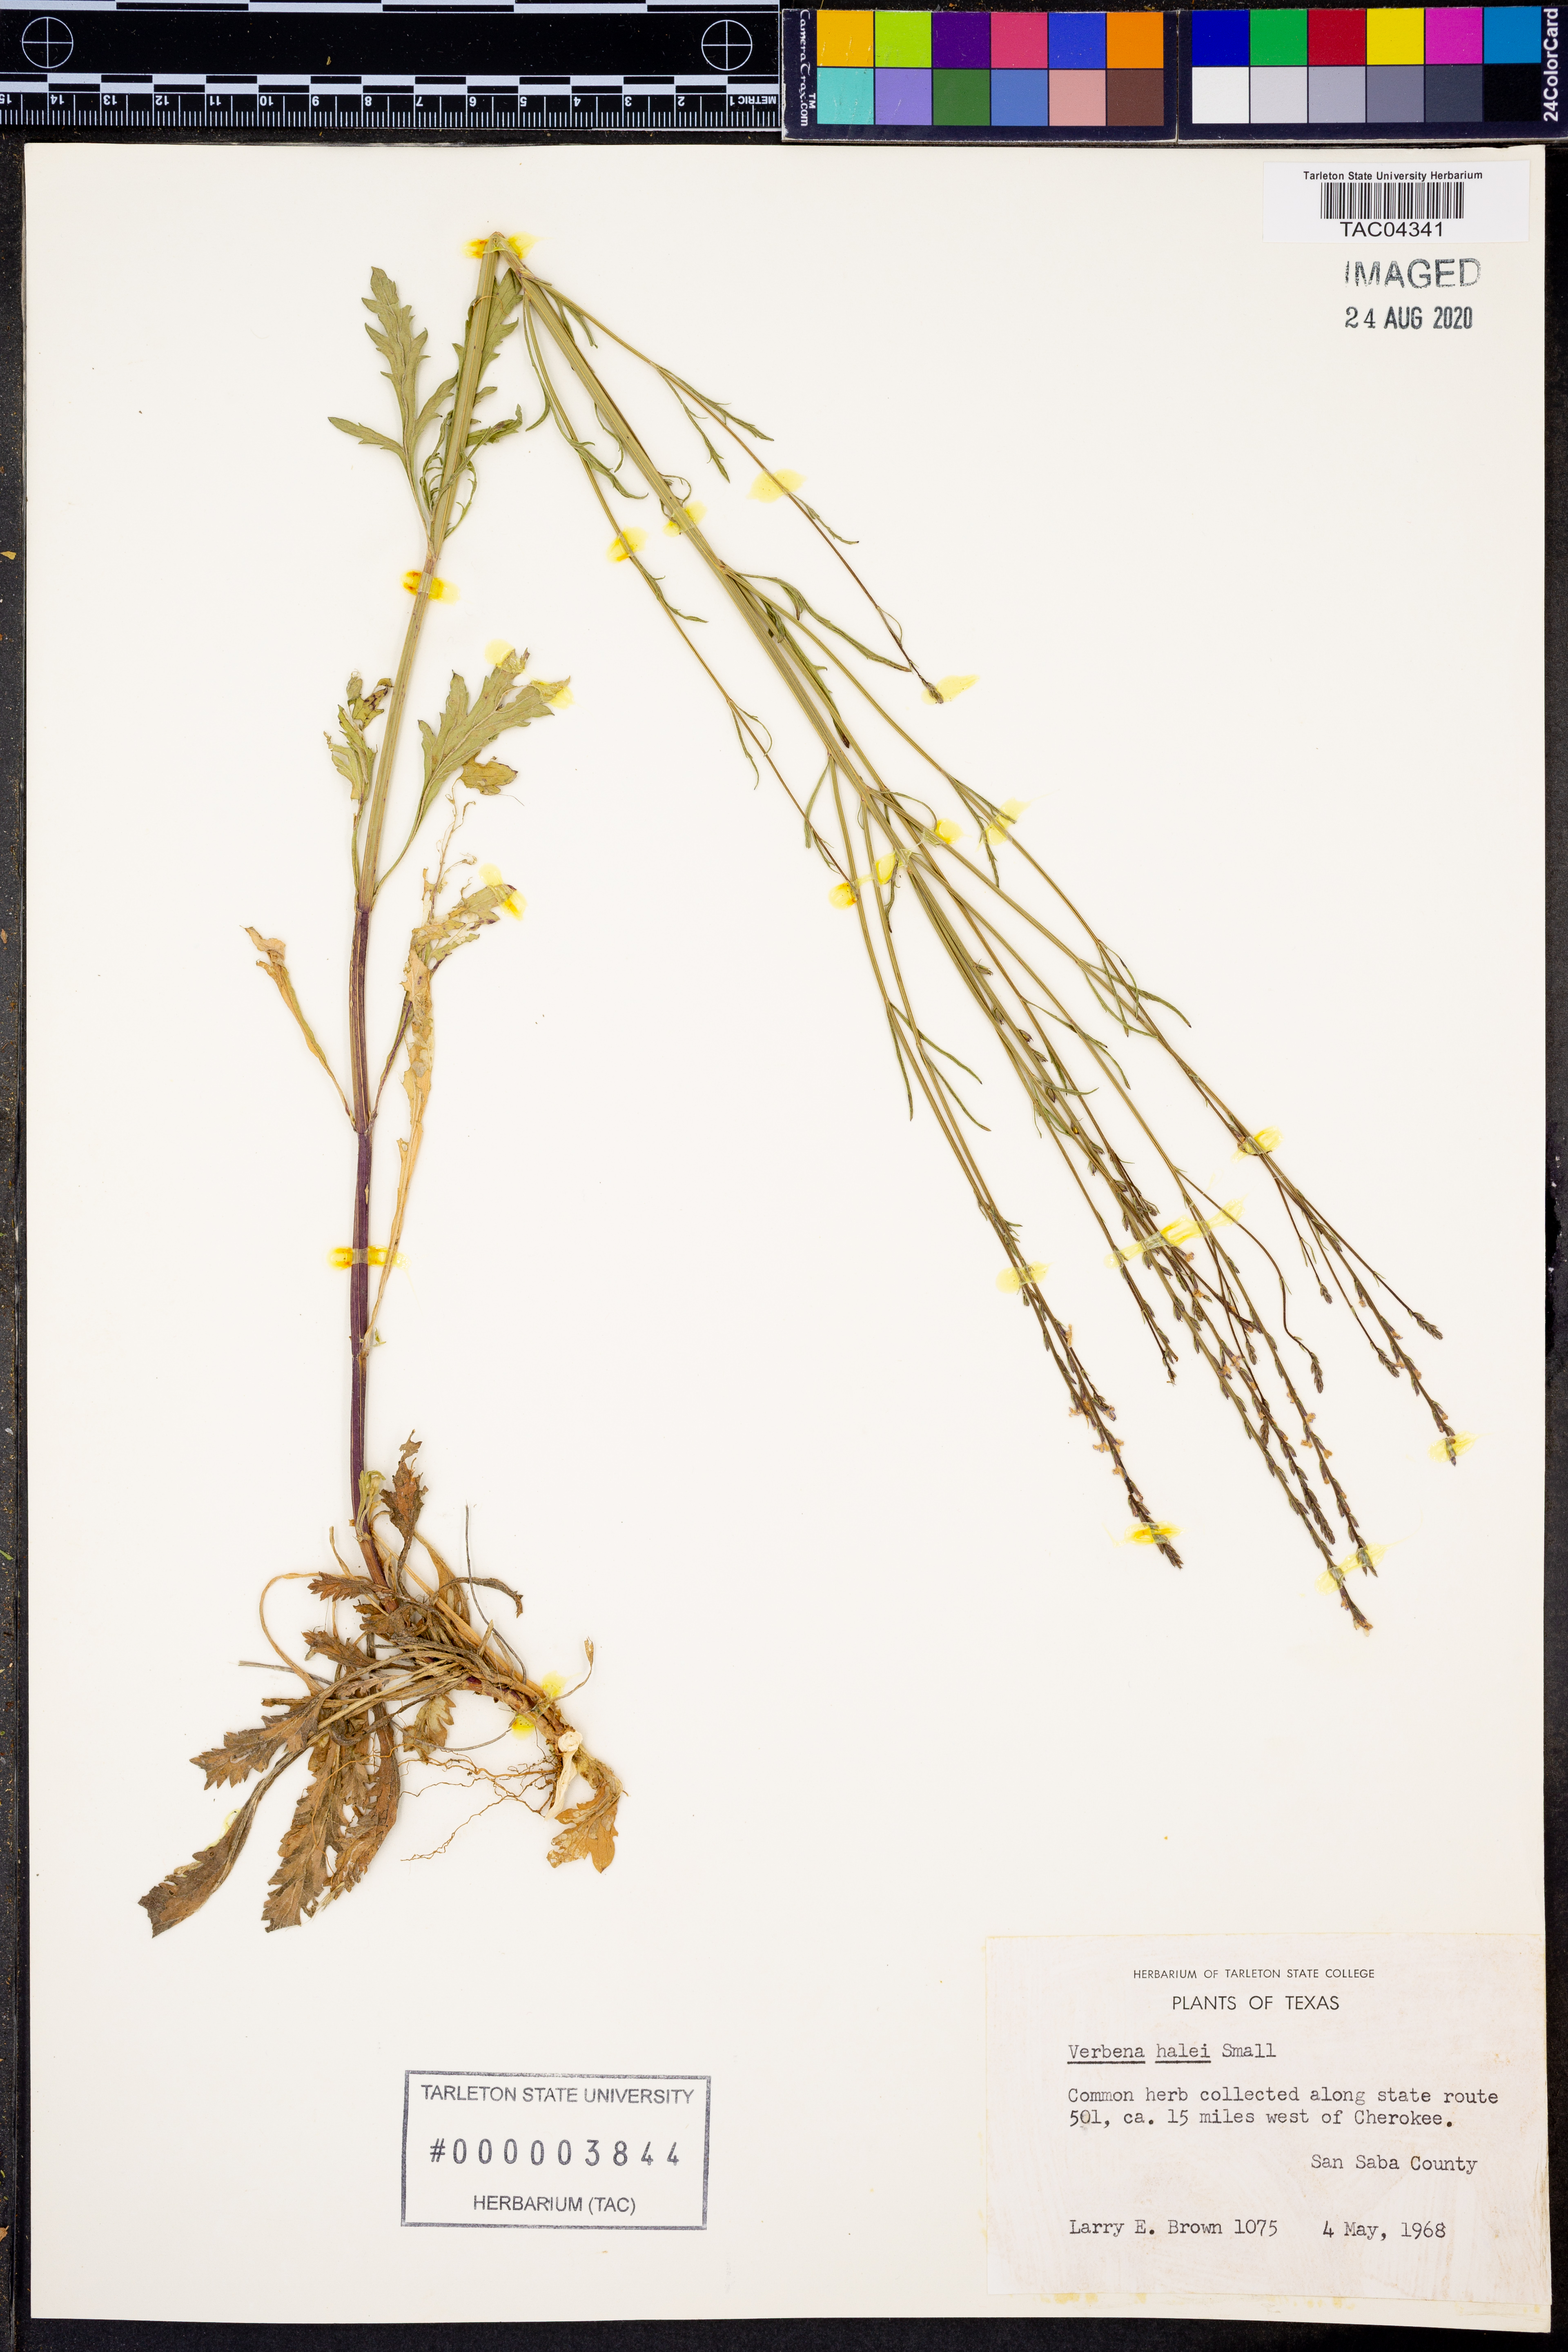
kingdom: Plantae
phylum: Tracheophyta
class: Magnoliopsida
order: Lamiales
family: Verbenaceae
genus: Verbena
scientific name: Verbena halei
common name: Texas vervain
